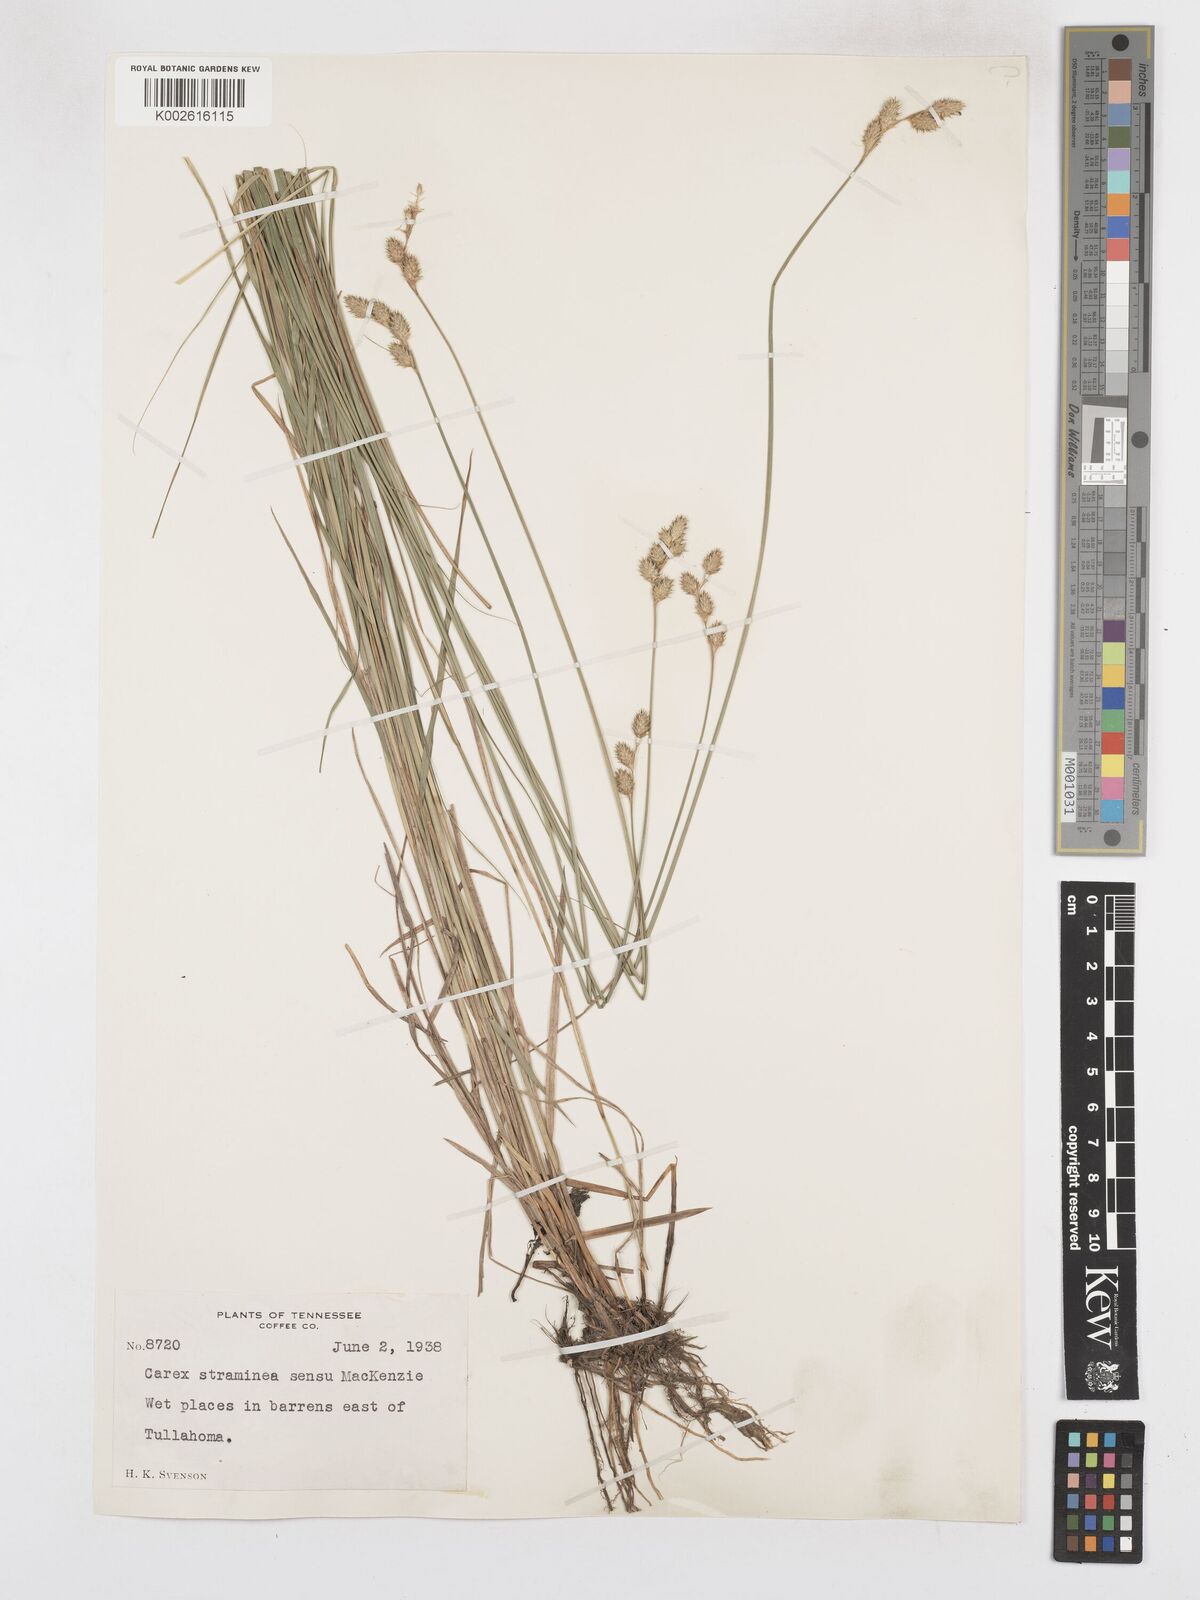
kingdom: Plantae
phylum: Tracheophyta
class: Liliopsida
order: Poales
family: Cyperaceae
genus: Carex
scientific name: Carex brevior
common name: Brevior sedge
